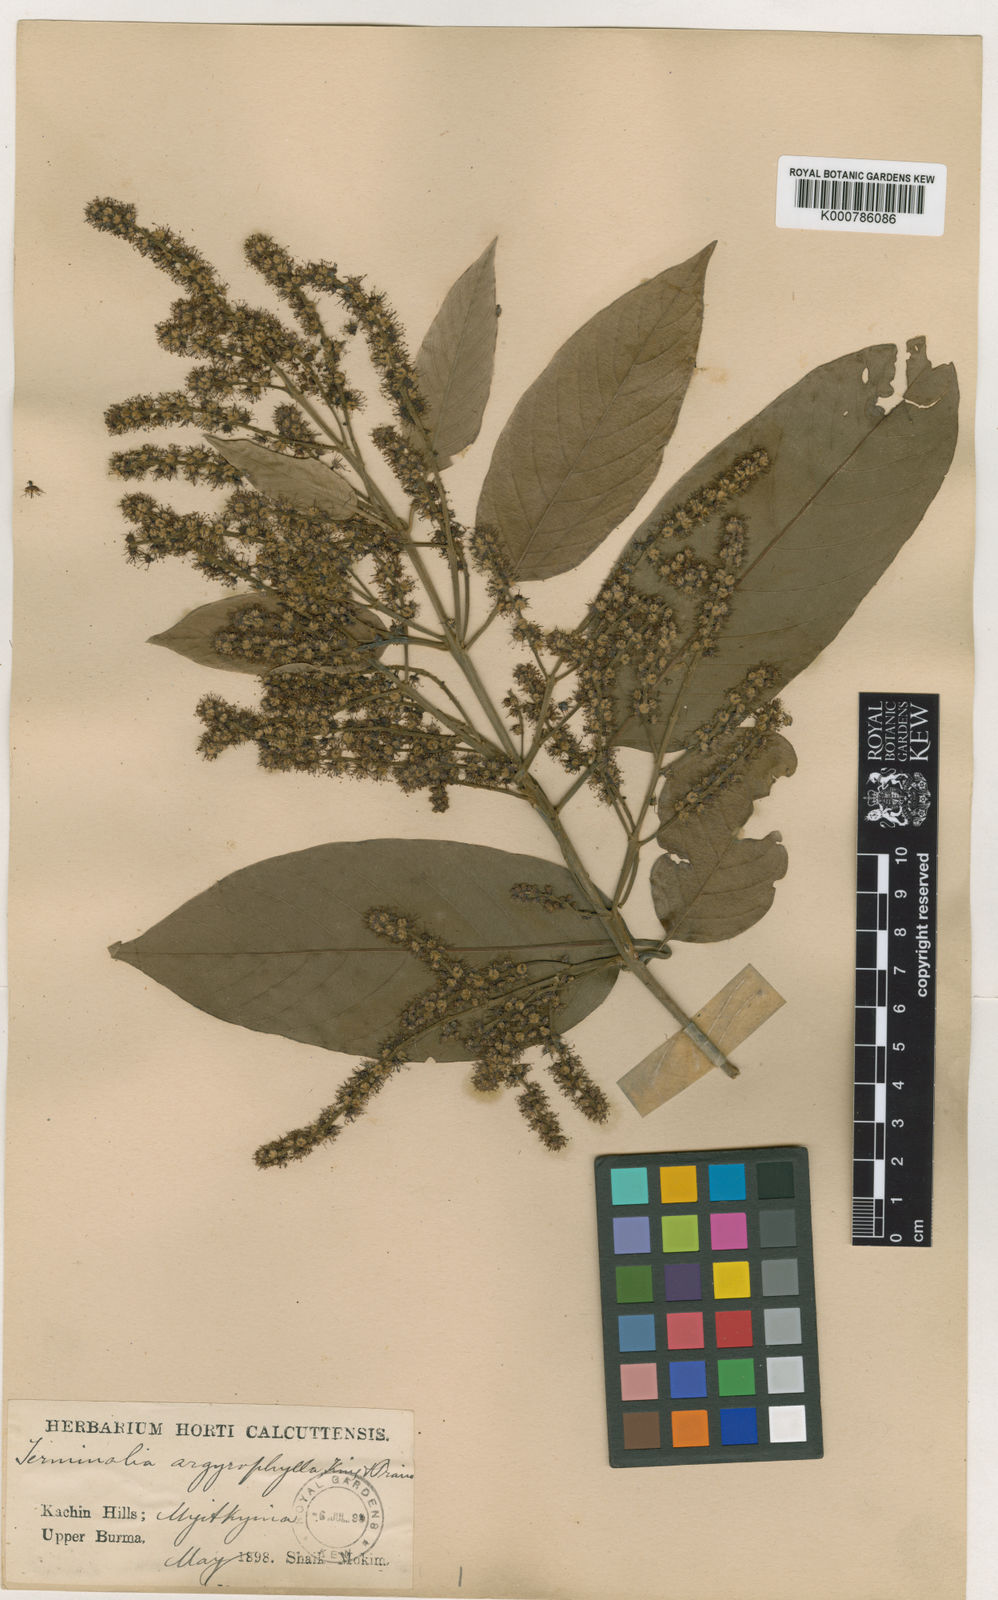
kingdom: Plantae
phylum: Tracheophyta
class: Magnoliopsida
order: Myrtales
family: Combretaceae
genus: Terminalia
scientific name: Terminalia chebula
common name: Myrobalan
